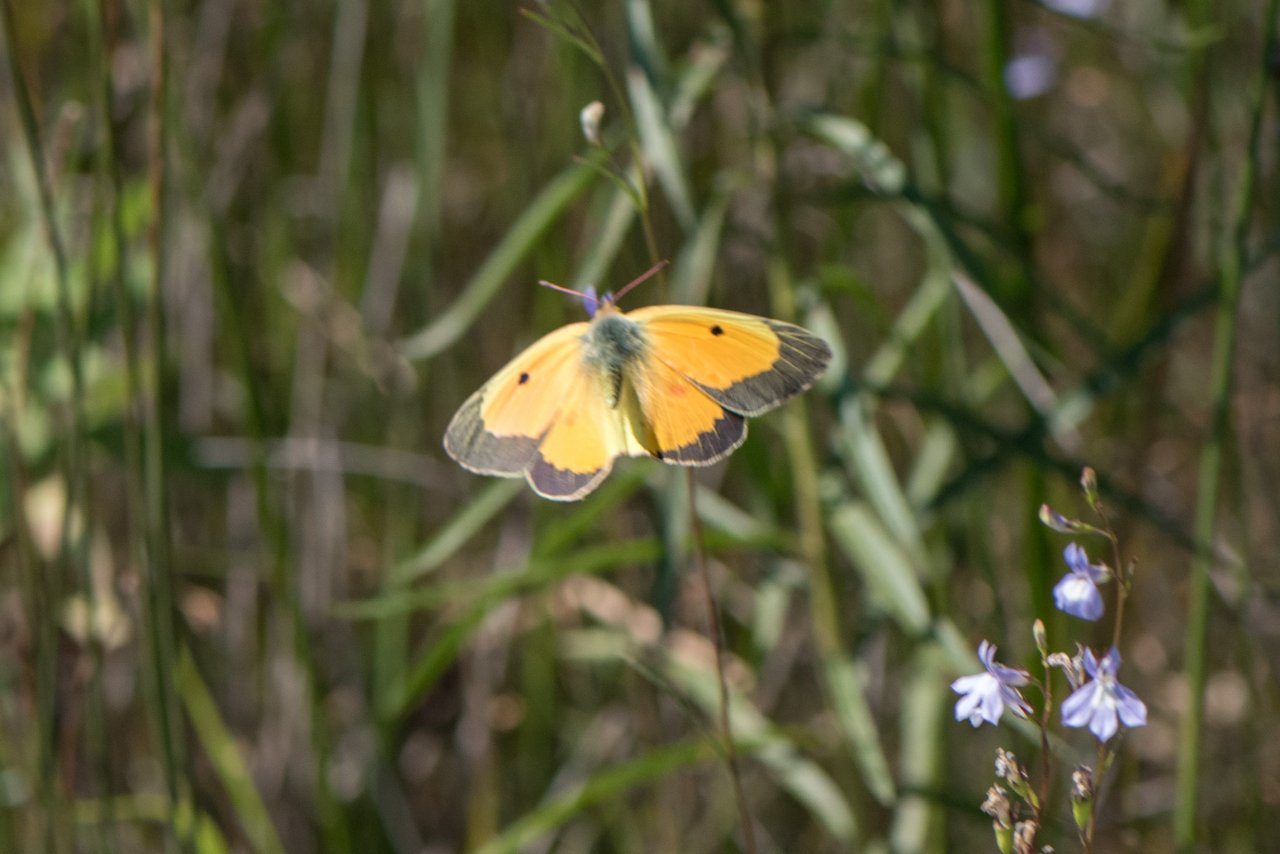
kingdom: Animalia
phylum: Arthropoda
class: Insecta
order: Lepidoptera
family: Pieridae
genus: Colias
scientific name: Colias eurytheme
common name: Orange Sulphur
